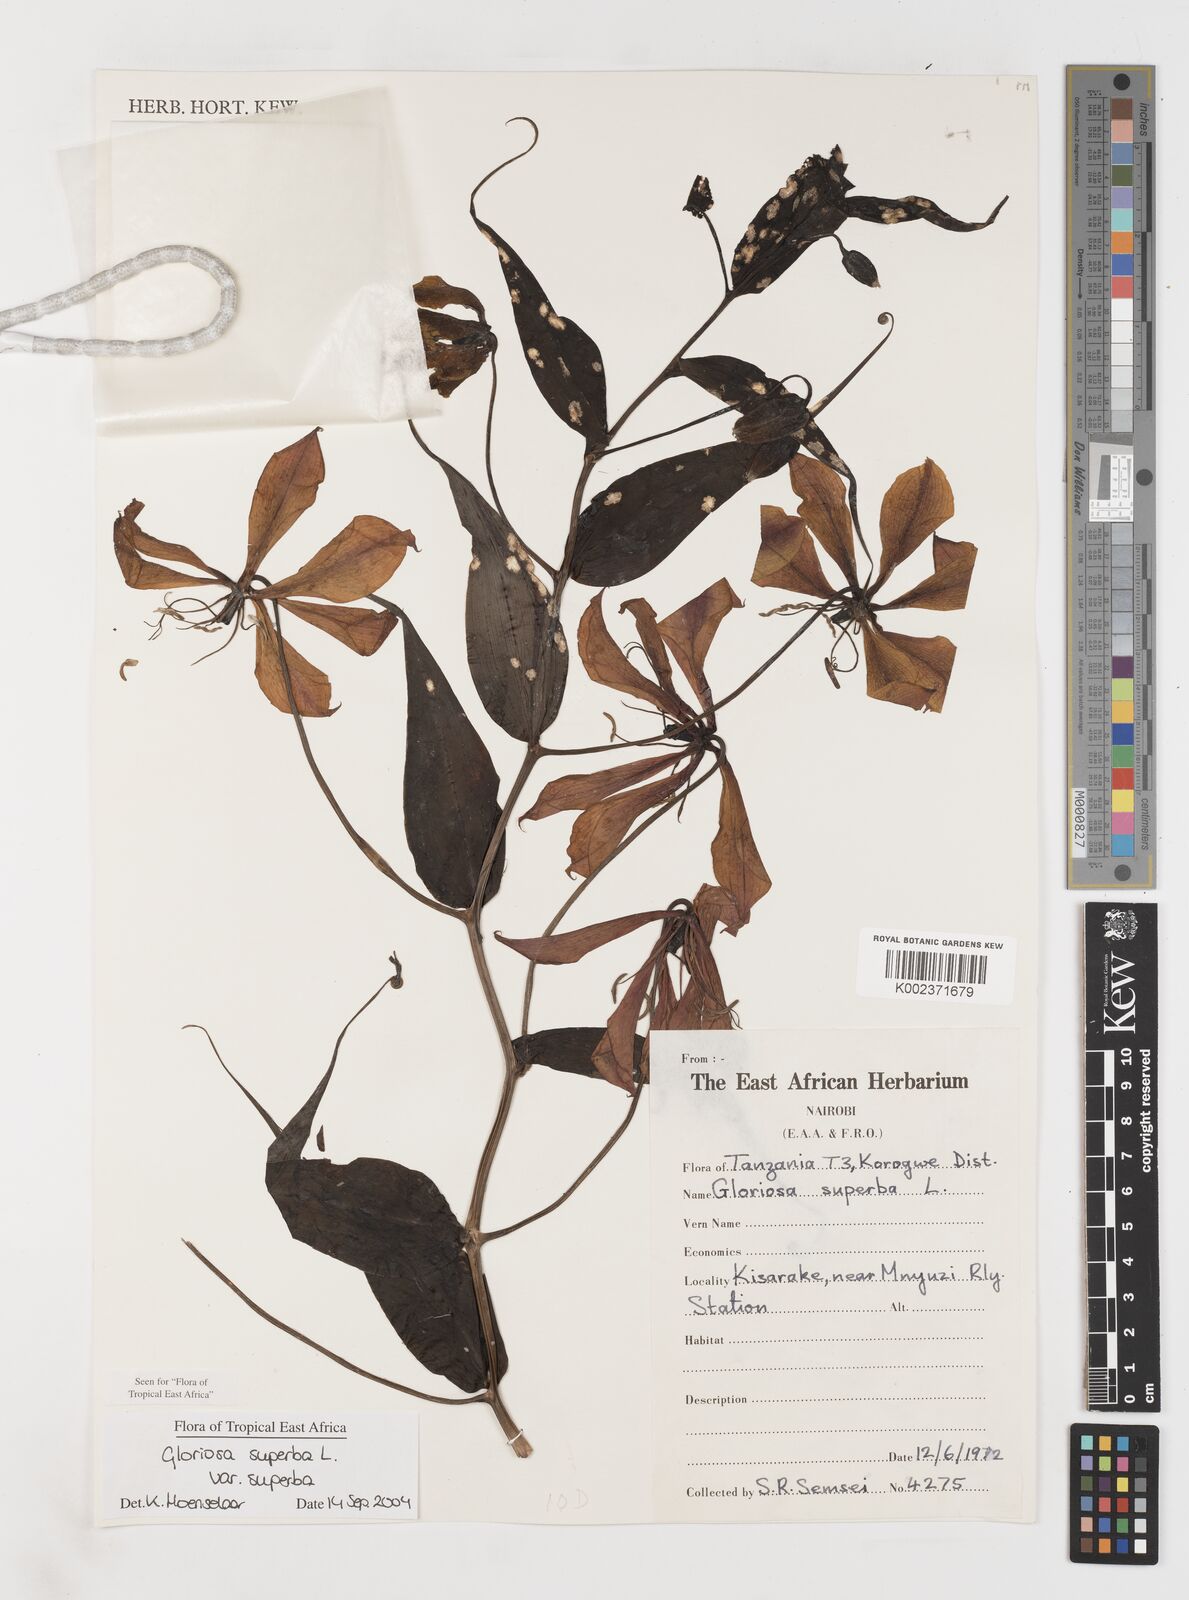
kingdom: Plantae
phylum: Tracheophyta
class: Liliopsida
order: Liliales
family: Colchicaceae
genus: Gloriosa
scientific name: Gloriosa simplex
